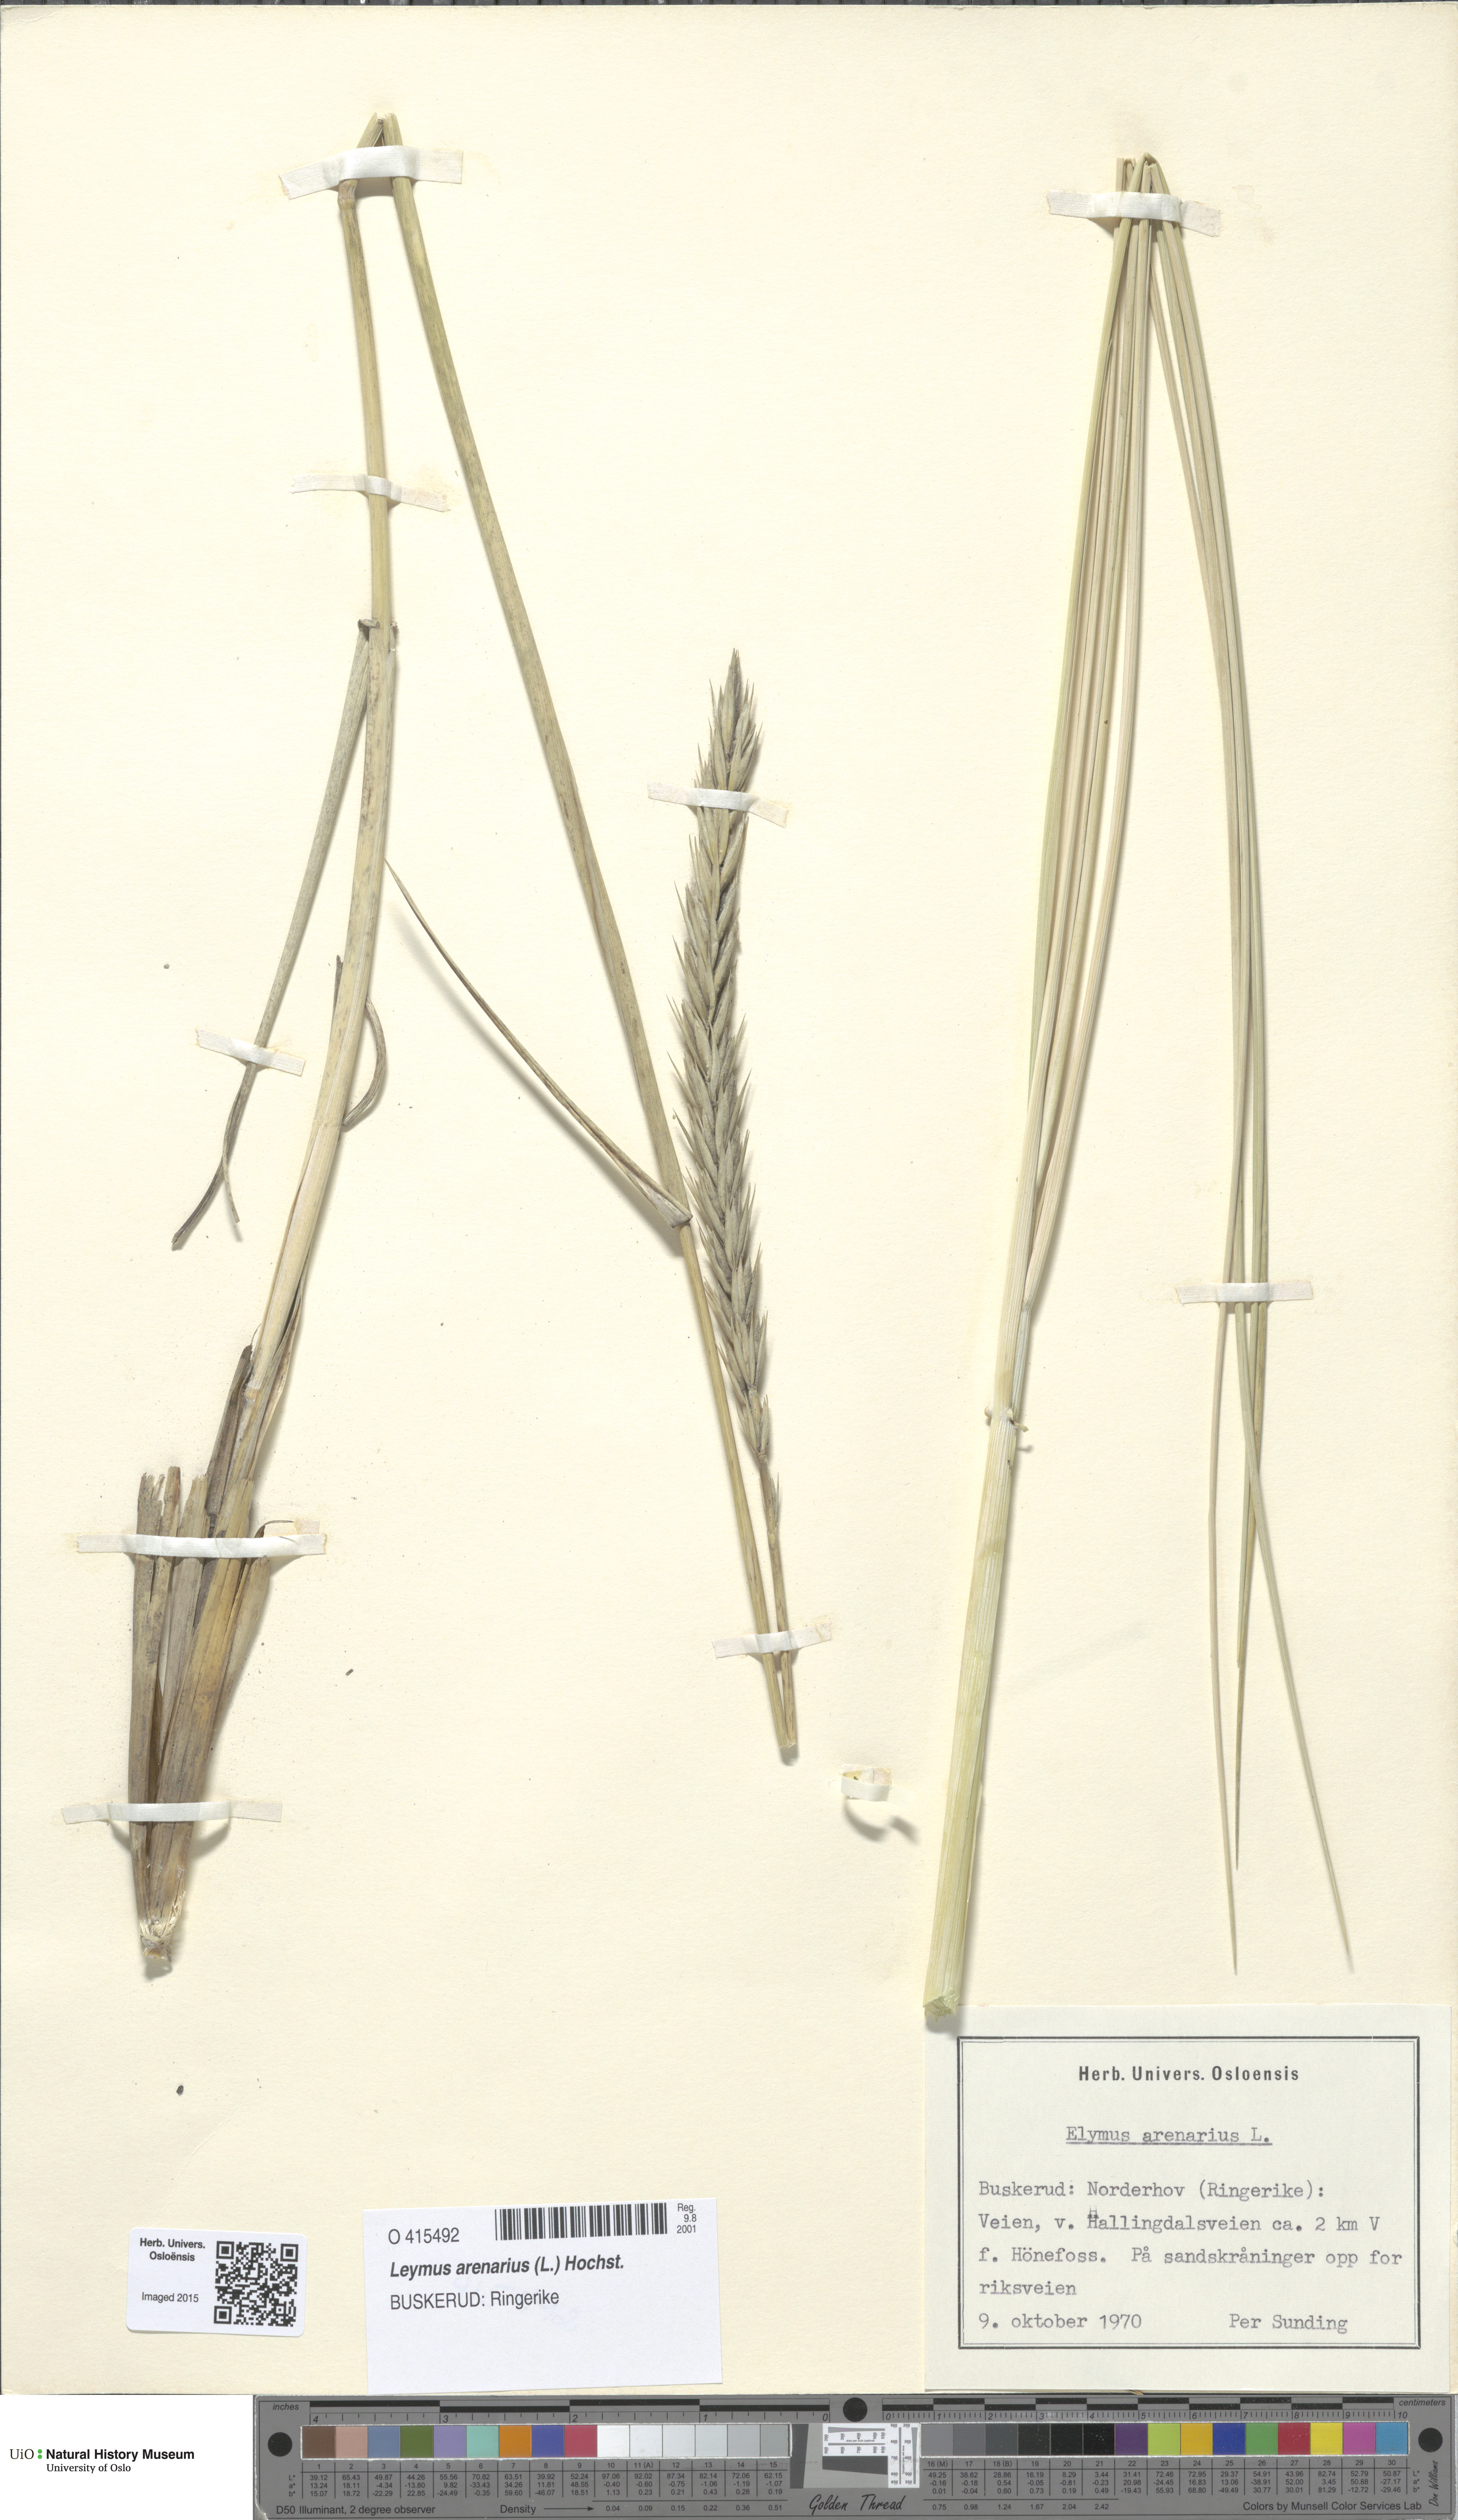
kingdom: Plantae
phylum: Tracheophyta
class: Liliopsida
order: Poales
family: Poaceae
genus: Leymus
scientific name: Leymus arenarius
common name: Lyme-grass
